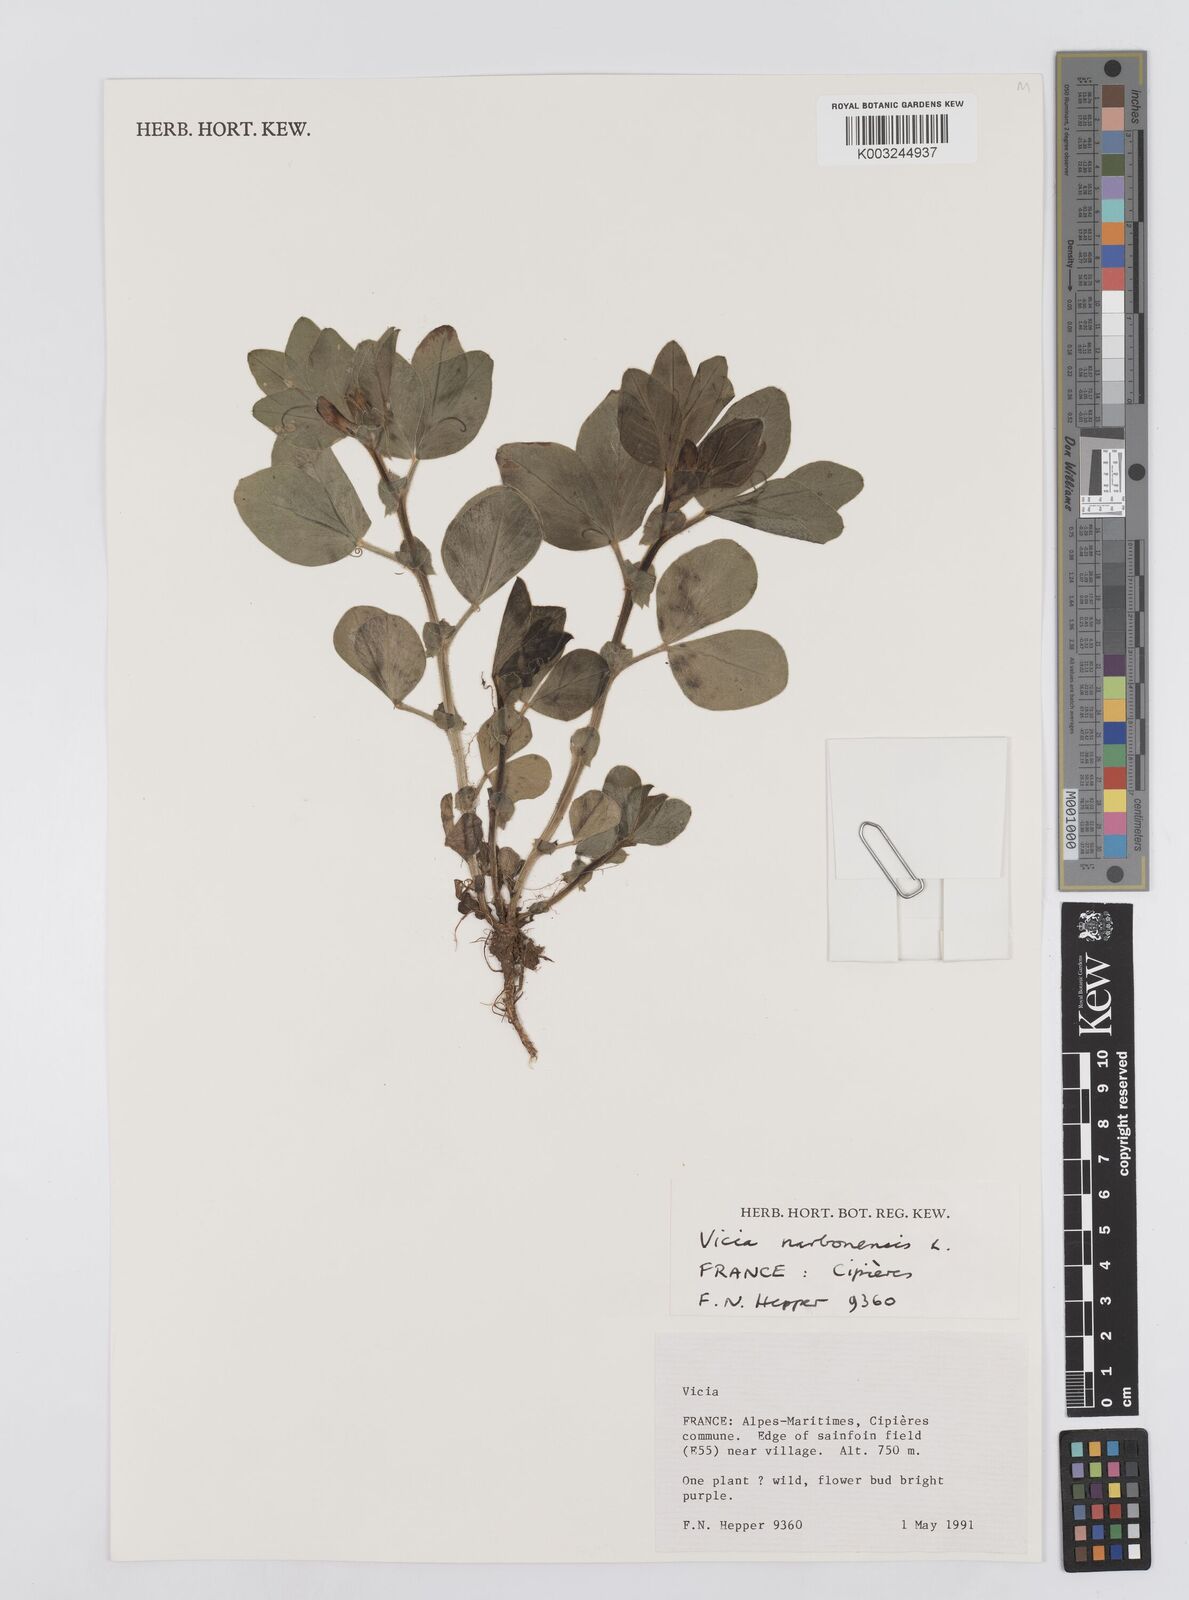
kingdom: Plantae
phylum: Tracheophyta
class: Magnoliopsida
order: Fabales
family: Fabaceae
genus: Vicia
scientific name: Vicia narbonensis
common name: Narbonne vetch
